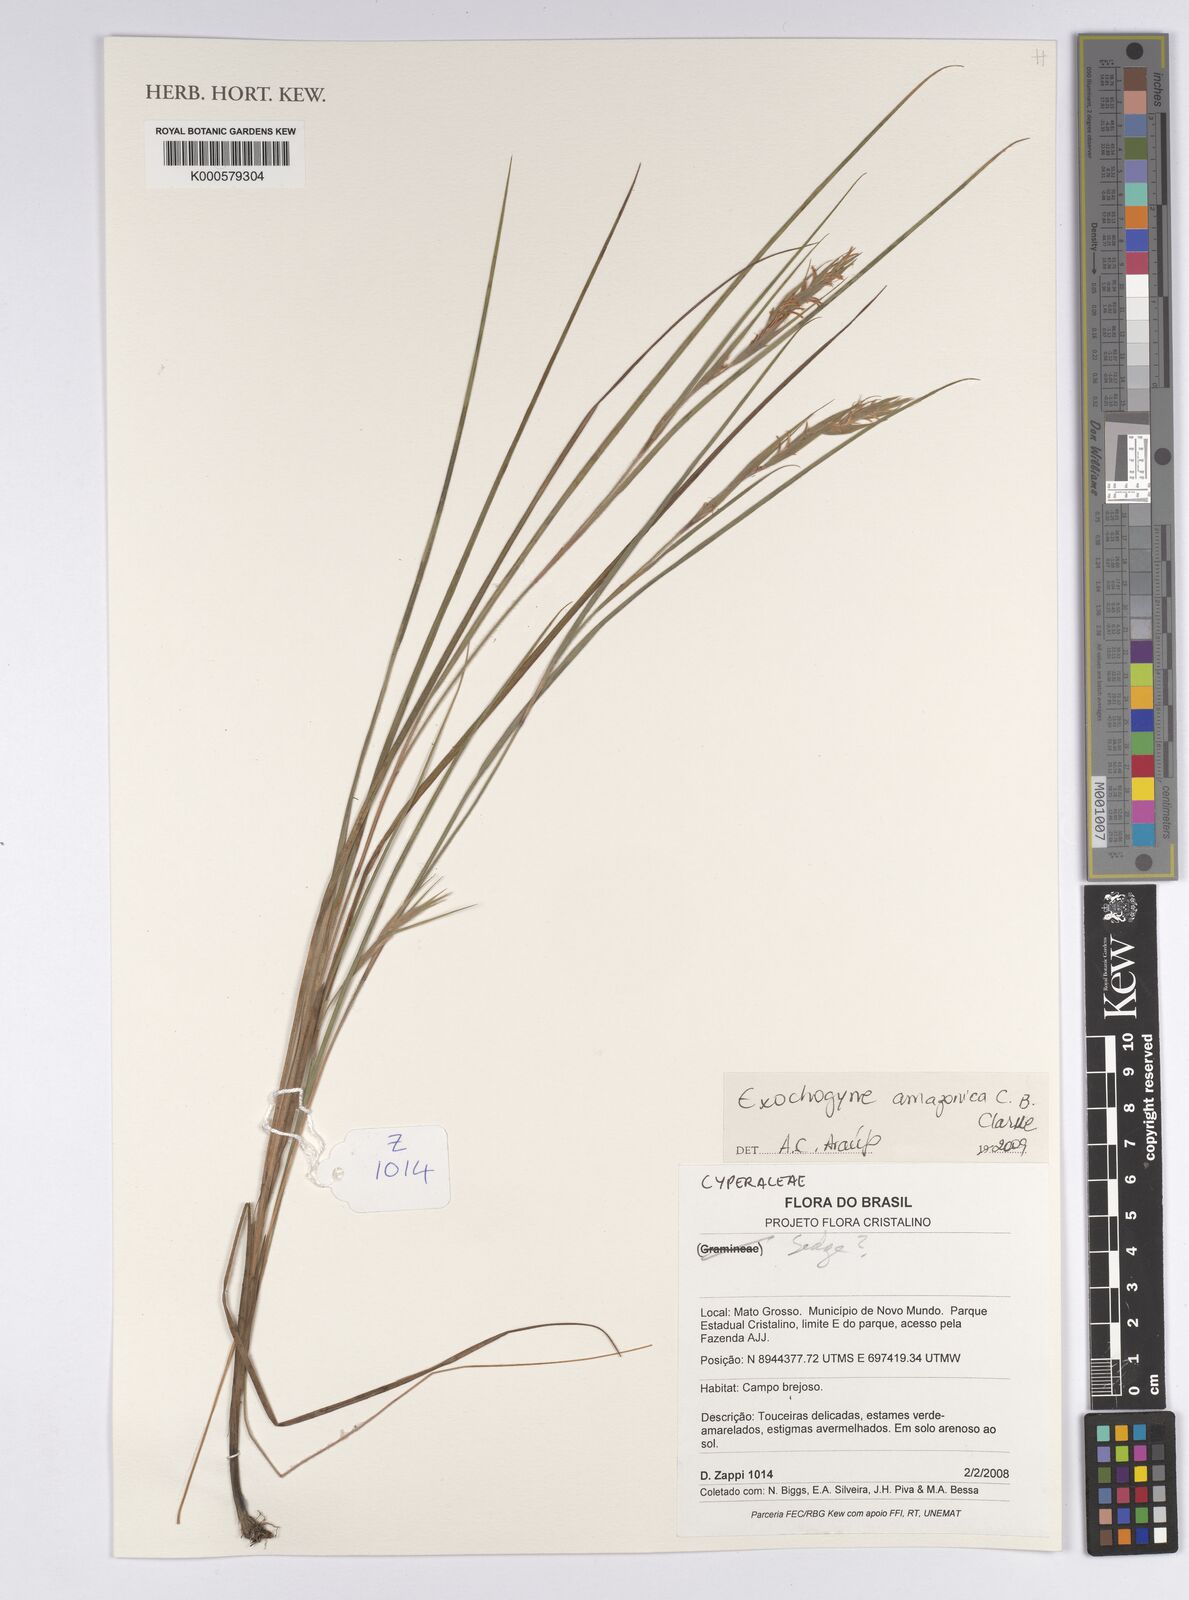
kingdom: Plantae
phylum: Tracheophyta
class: Liliopsida
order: Poales
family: Cyperaceae
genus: Exochogyne
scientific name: Exochogyne amazonica
